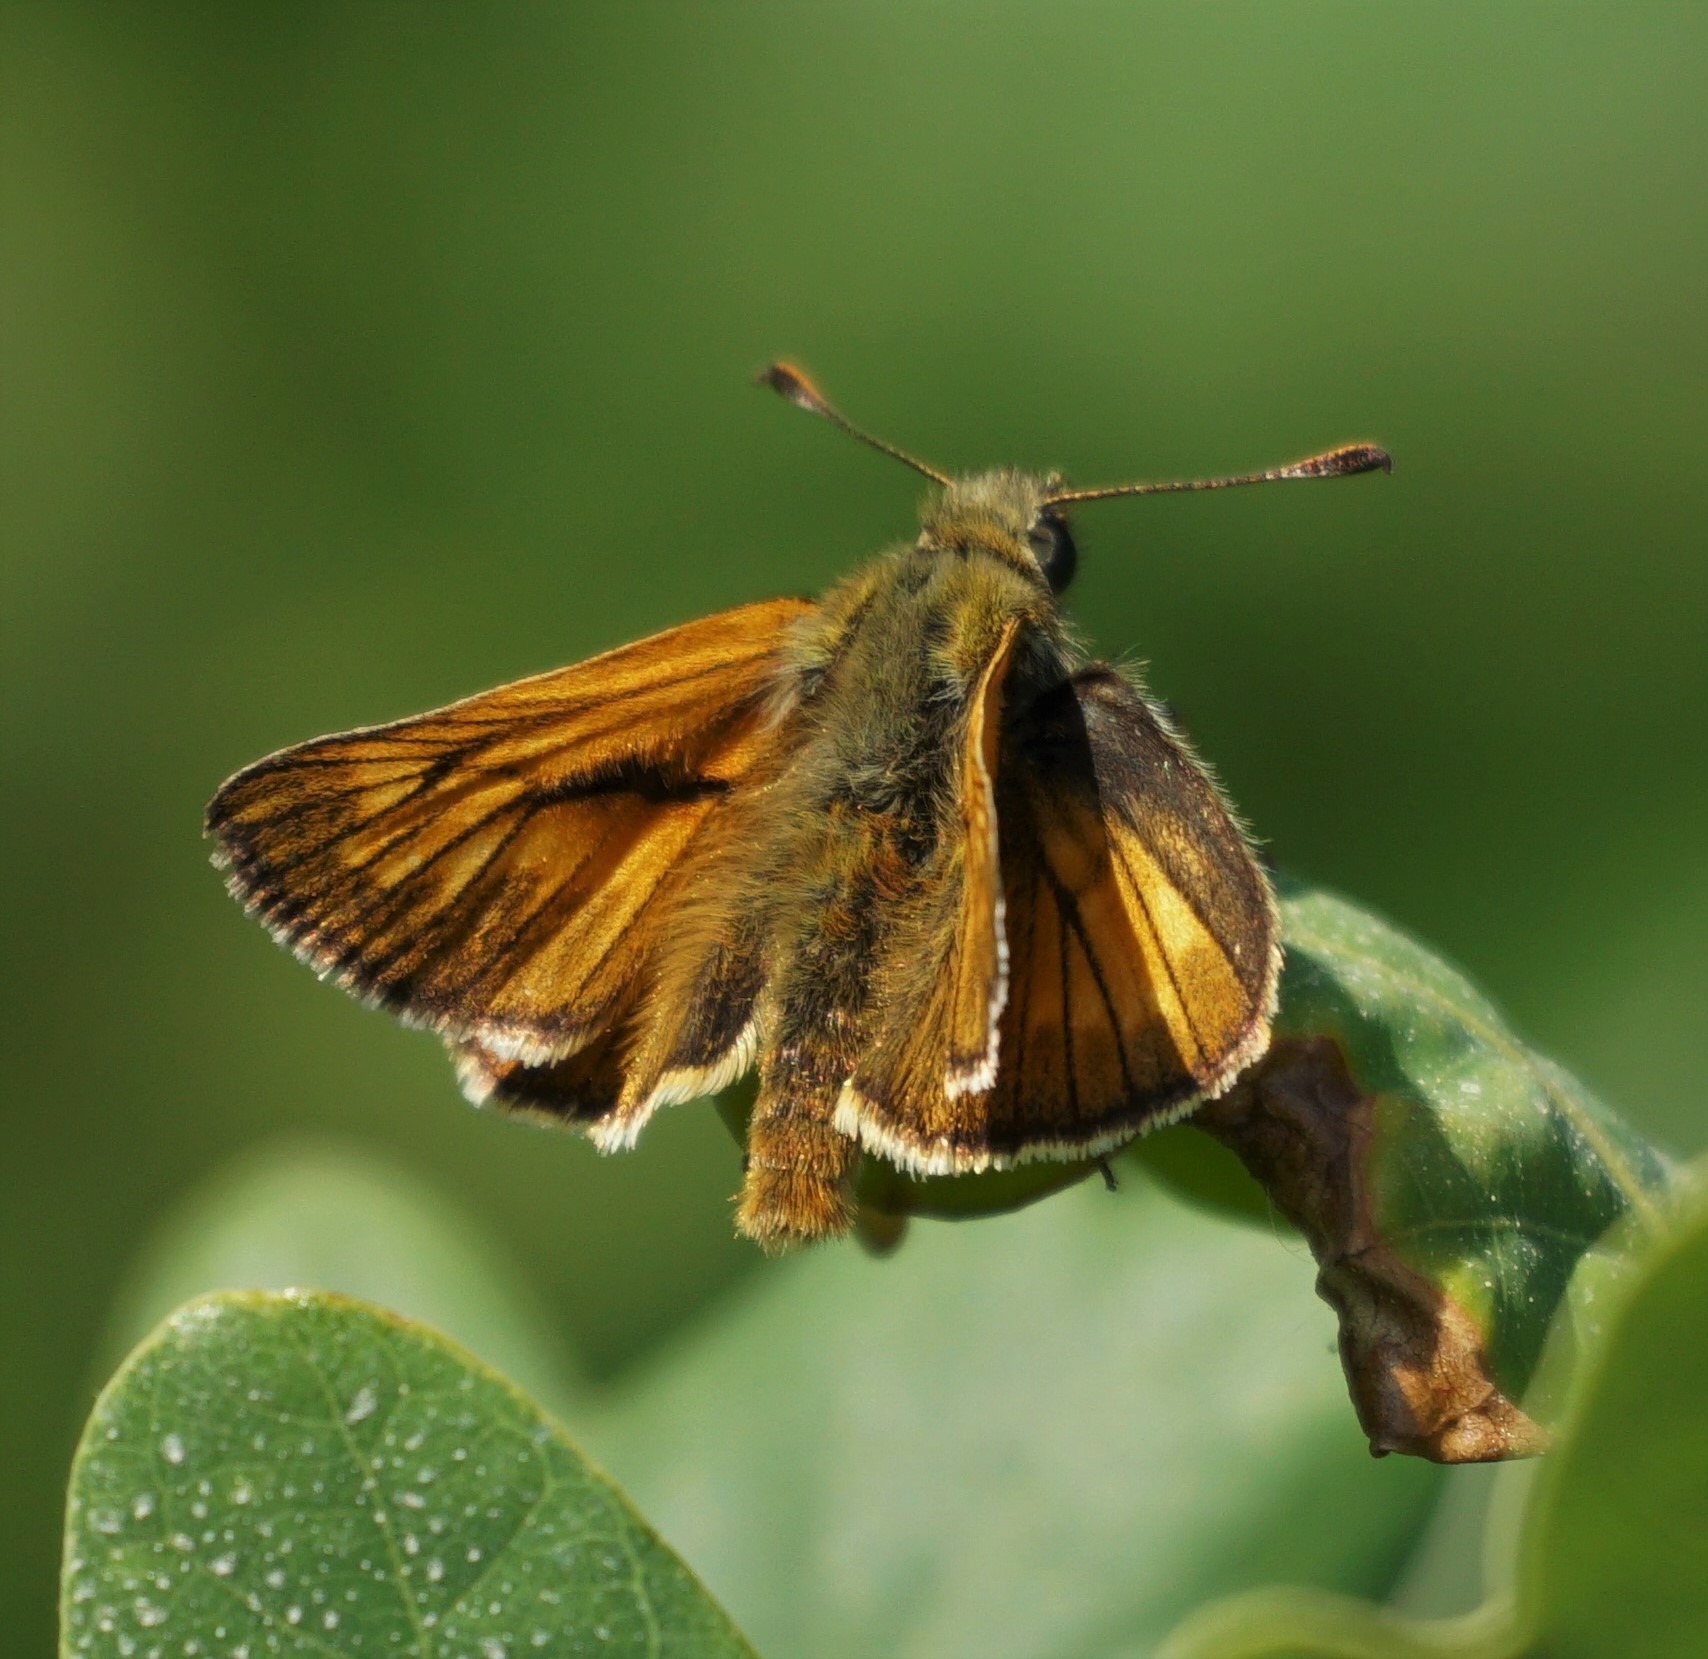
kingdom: Animalia
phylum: Arthropoda
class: Insecta
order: Lepidoptera
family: Hesperiidae
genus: Ochlodes
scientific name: Ochlodes venata
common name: Stor bredpande
